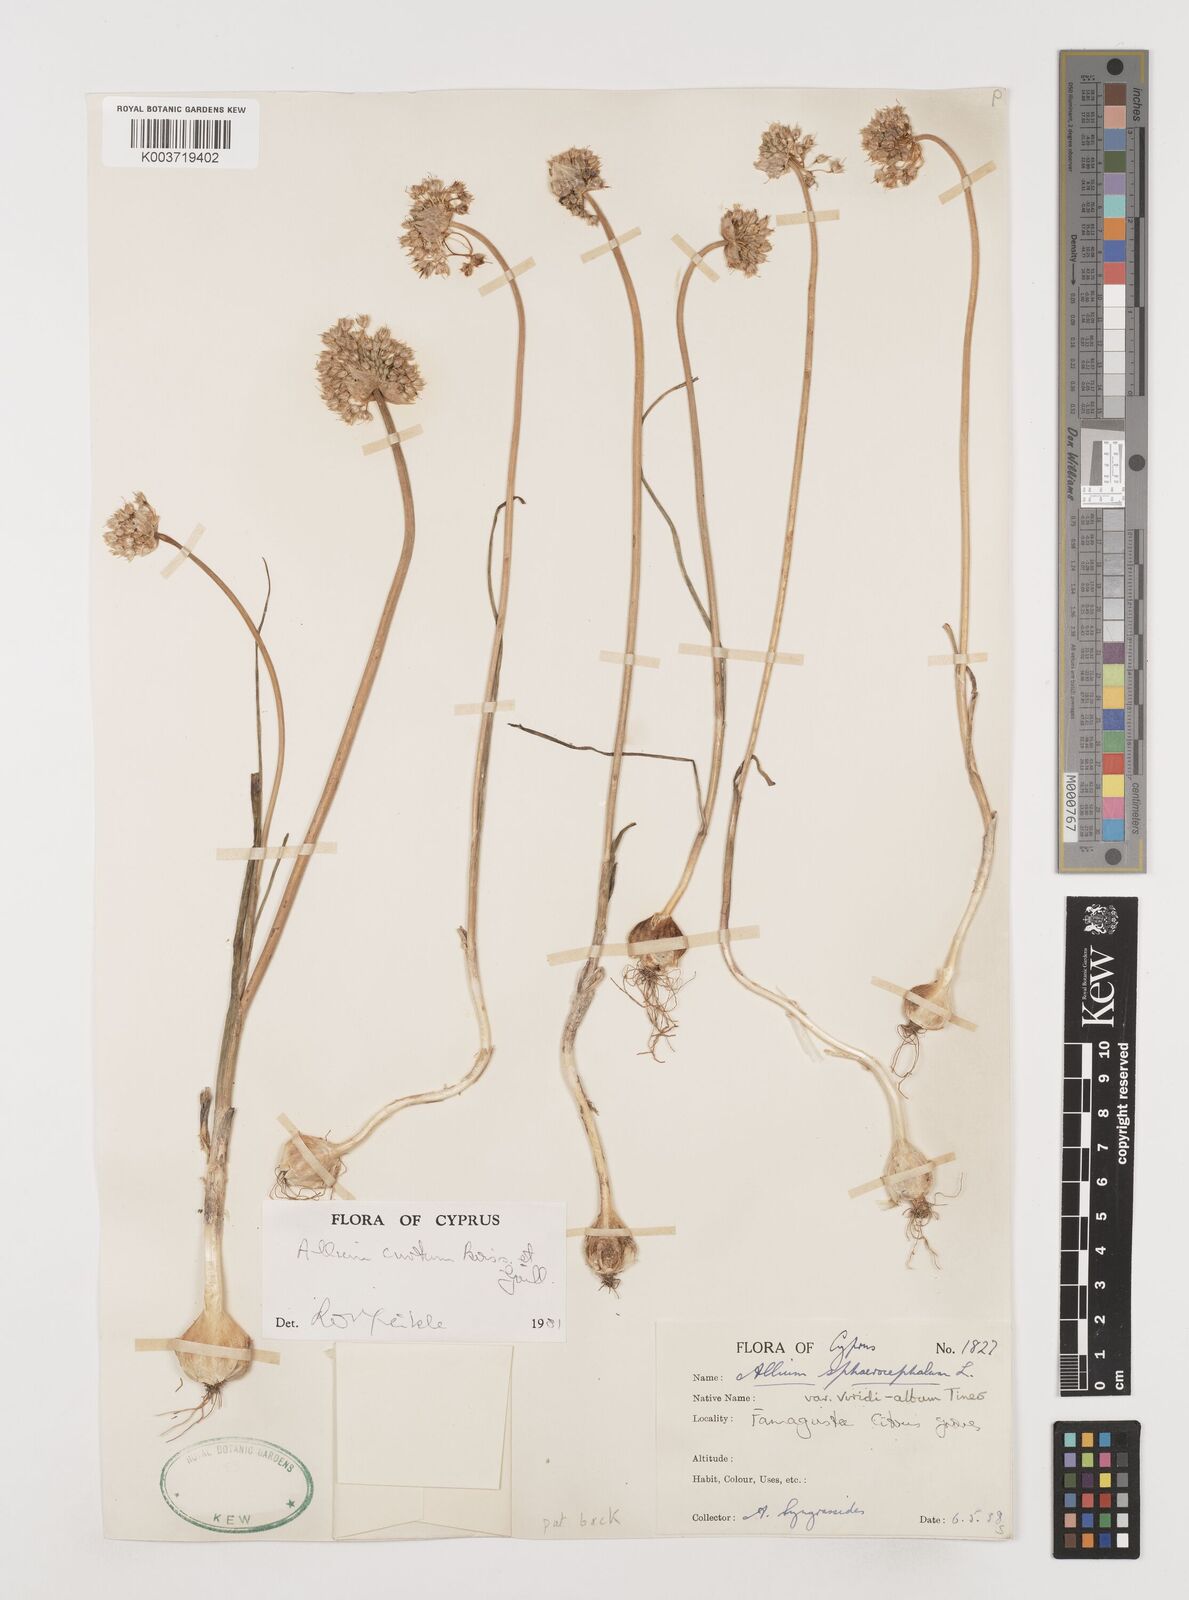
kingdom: Plantae
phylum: Tracheophyta
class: Liliopsida
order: Asparagales
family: Amaryllidaceae
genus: Allium
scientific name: Allium curtum
